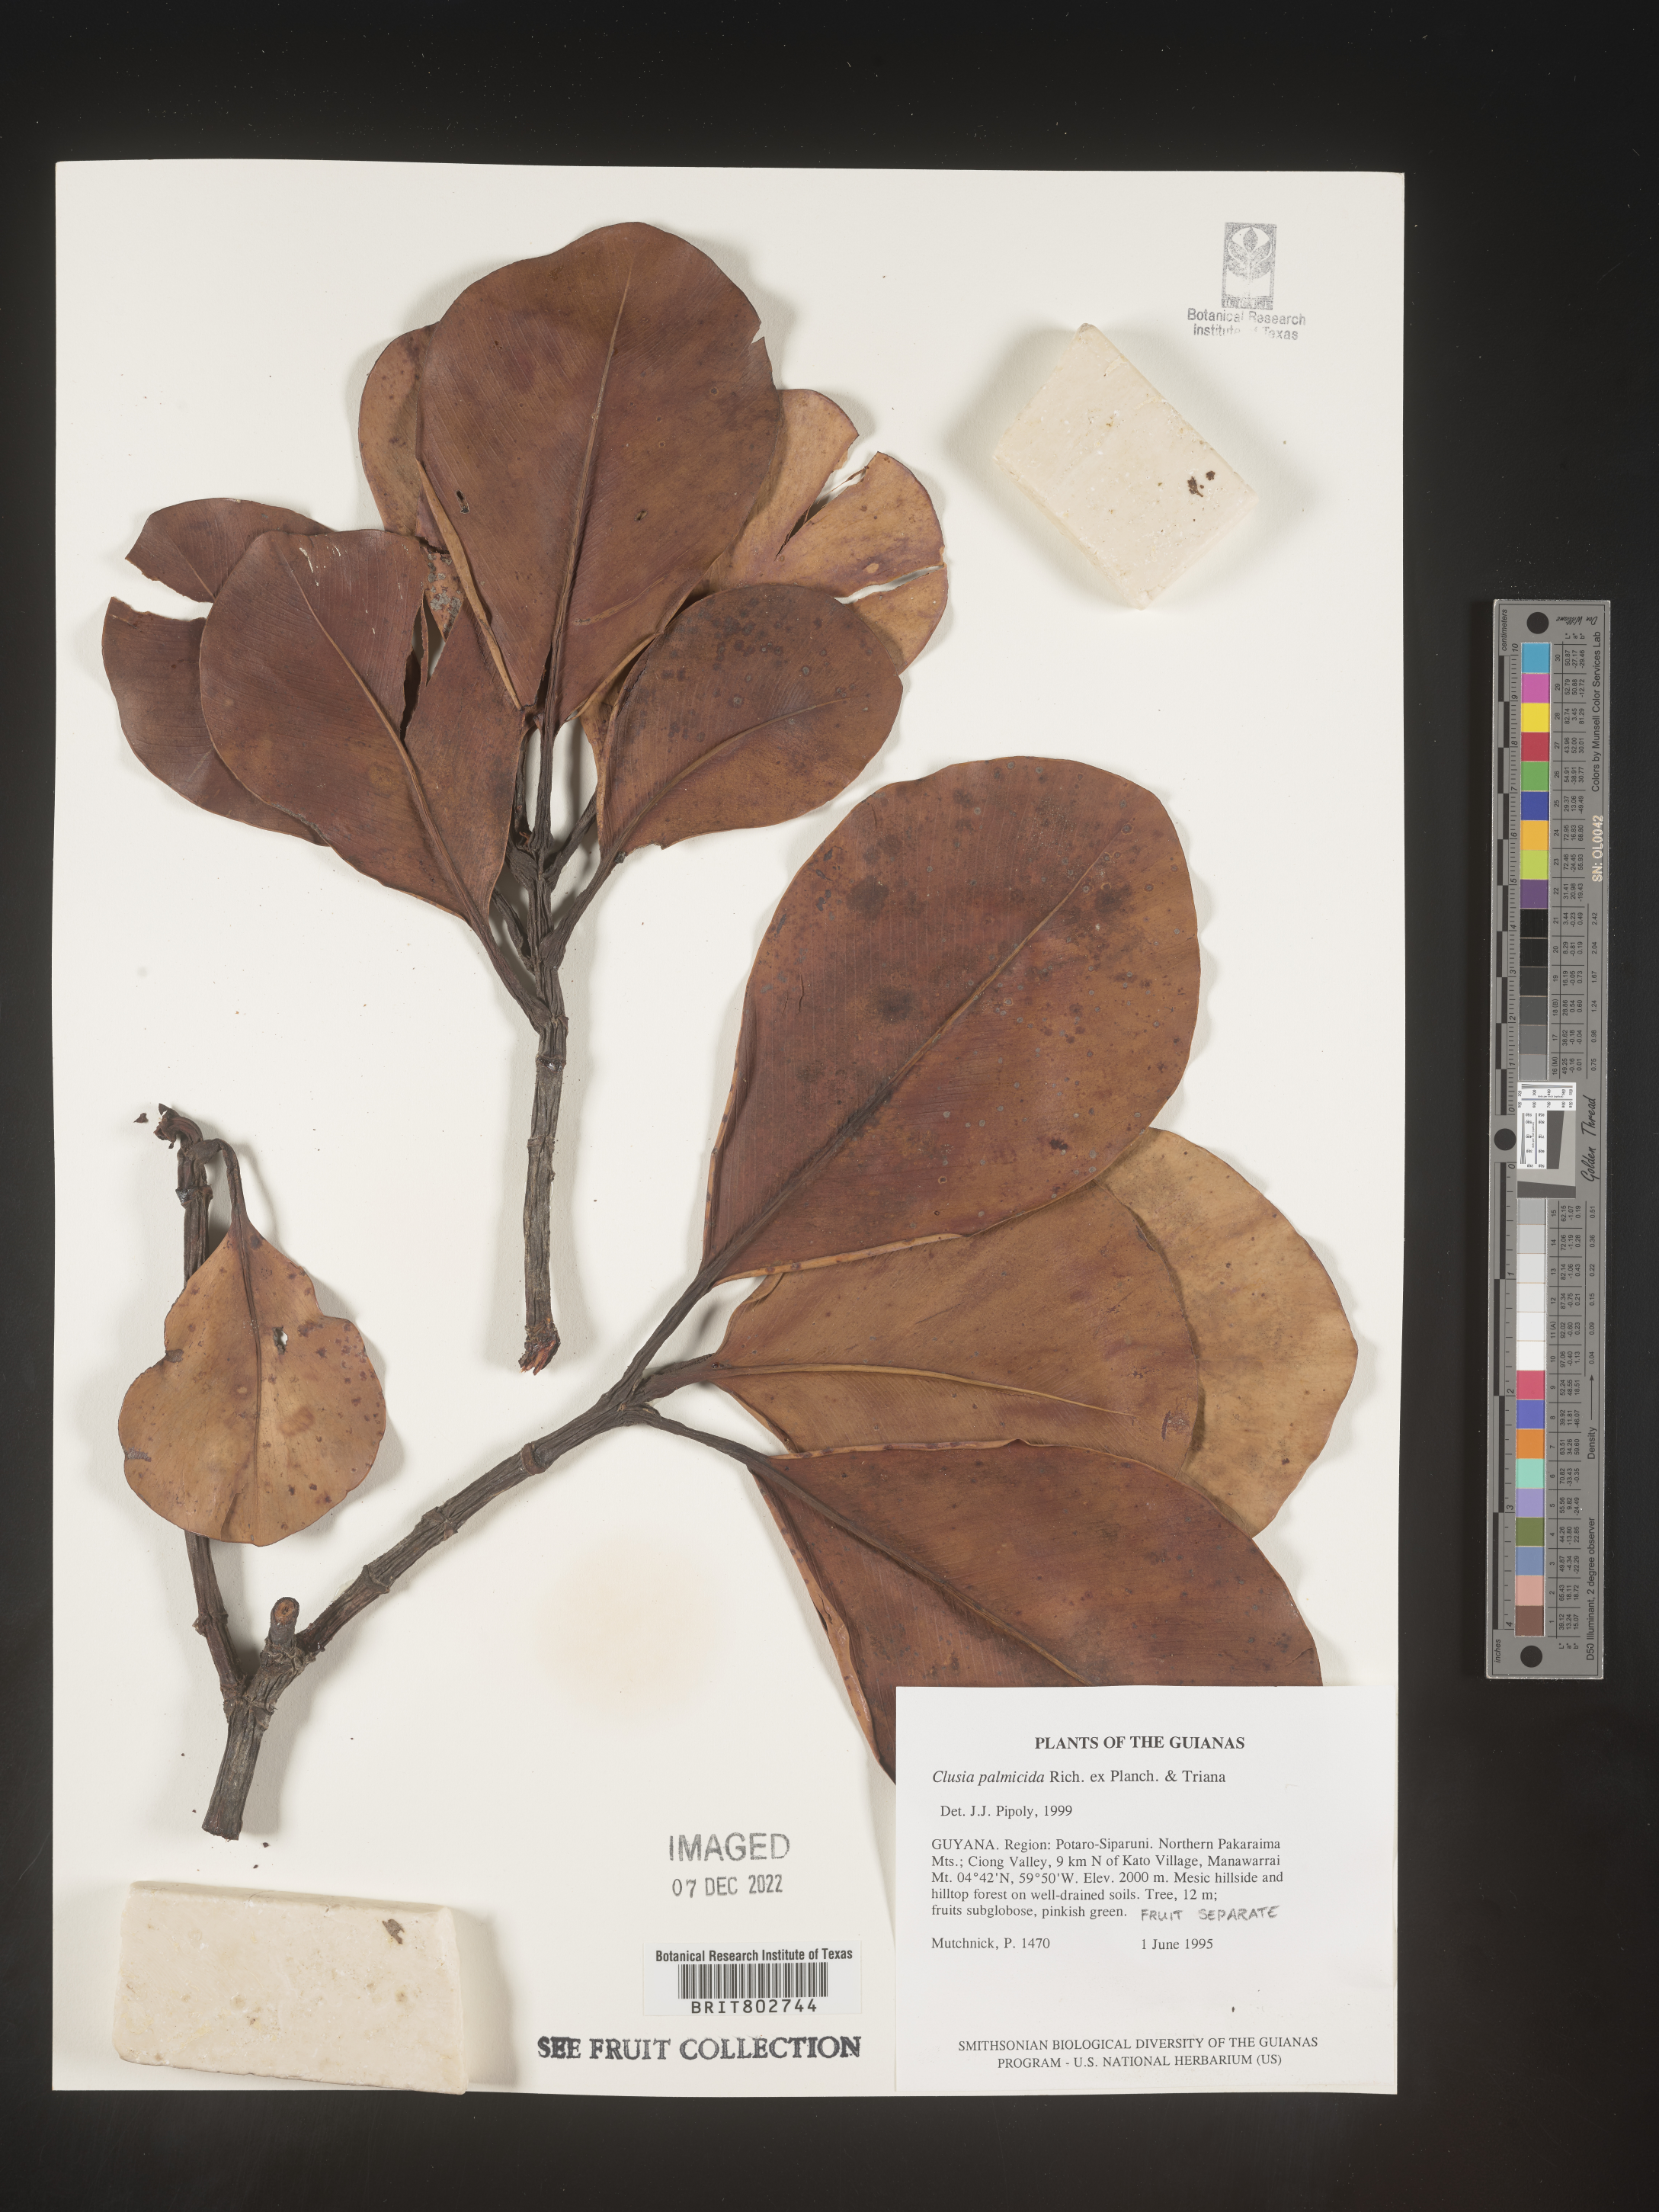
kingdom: Plantae
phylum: Tracheophyta
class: Magnoliopsida
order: Malpighiales
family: Clusiaceae
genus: Clusia
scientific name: Clusia palmicida
